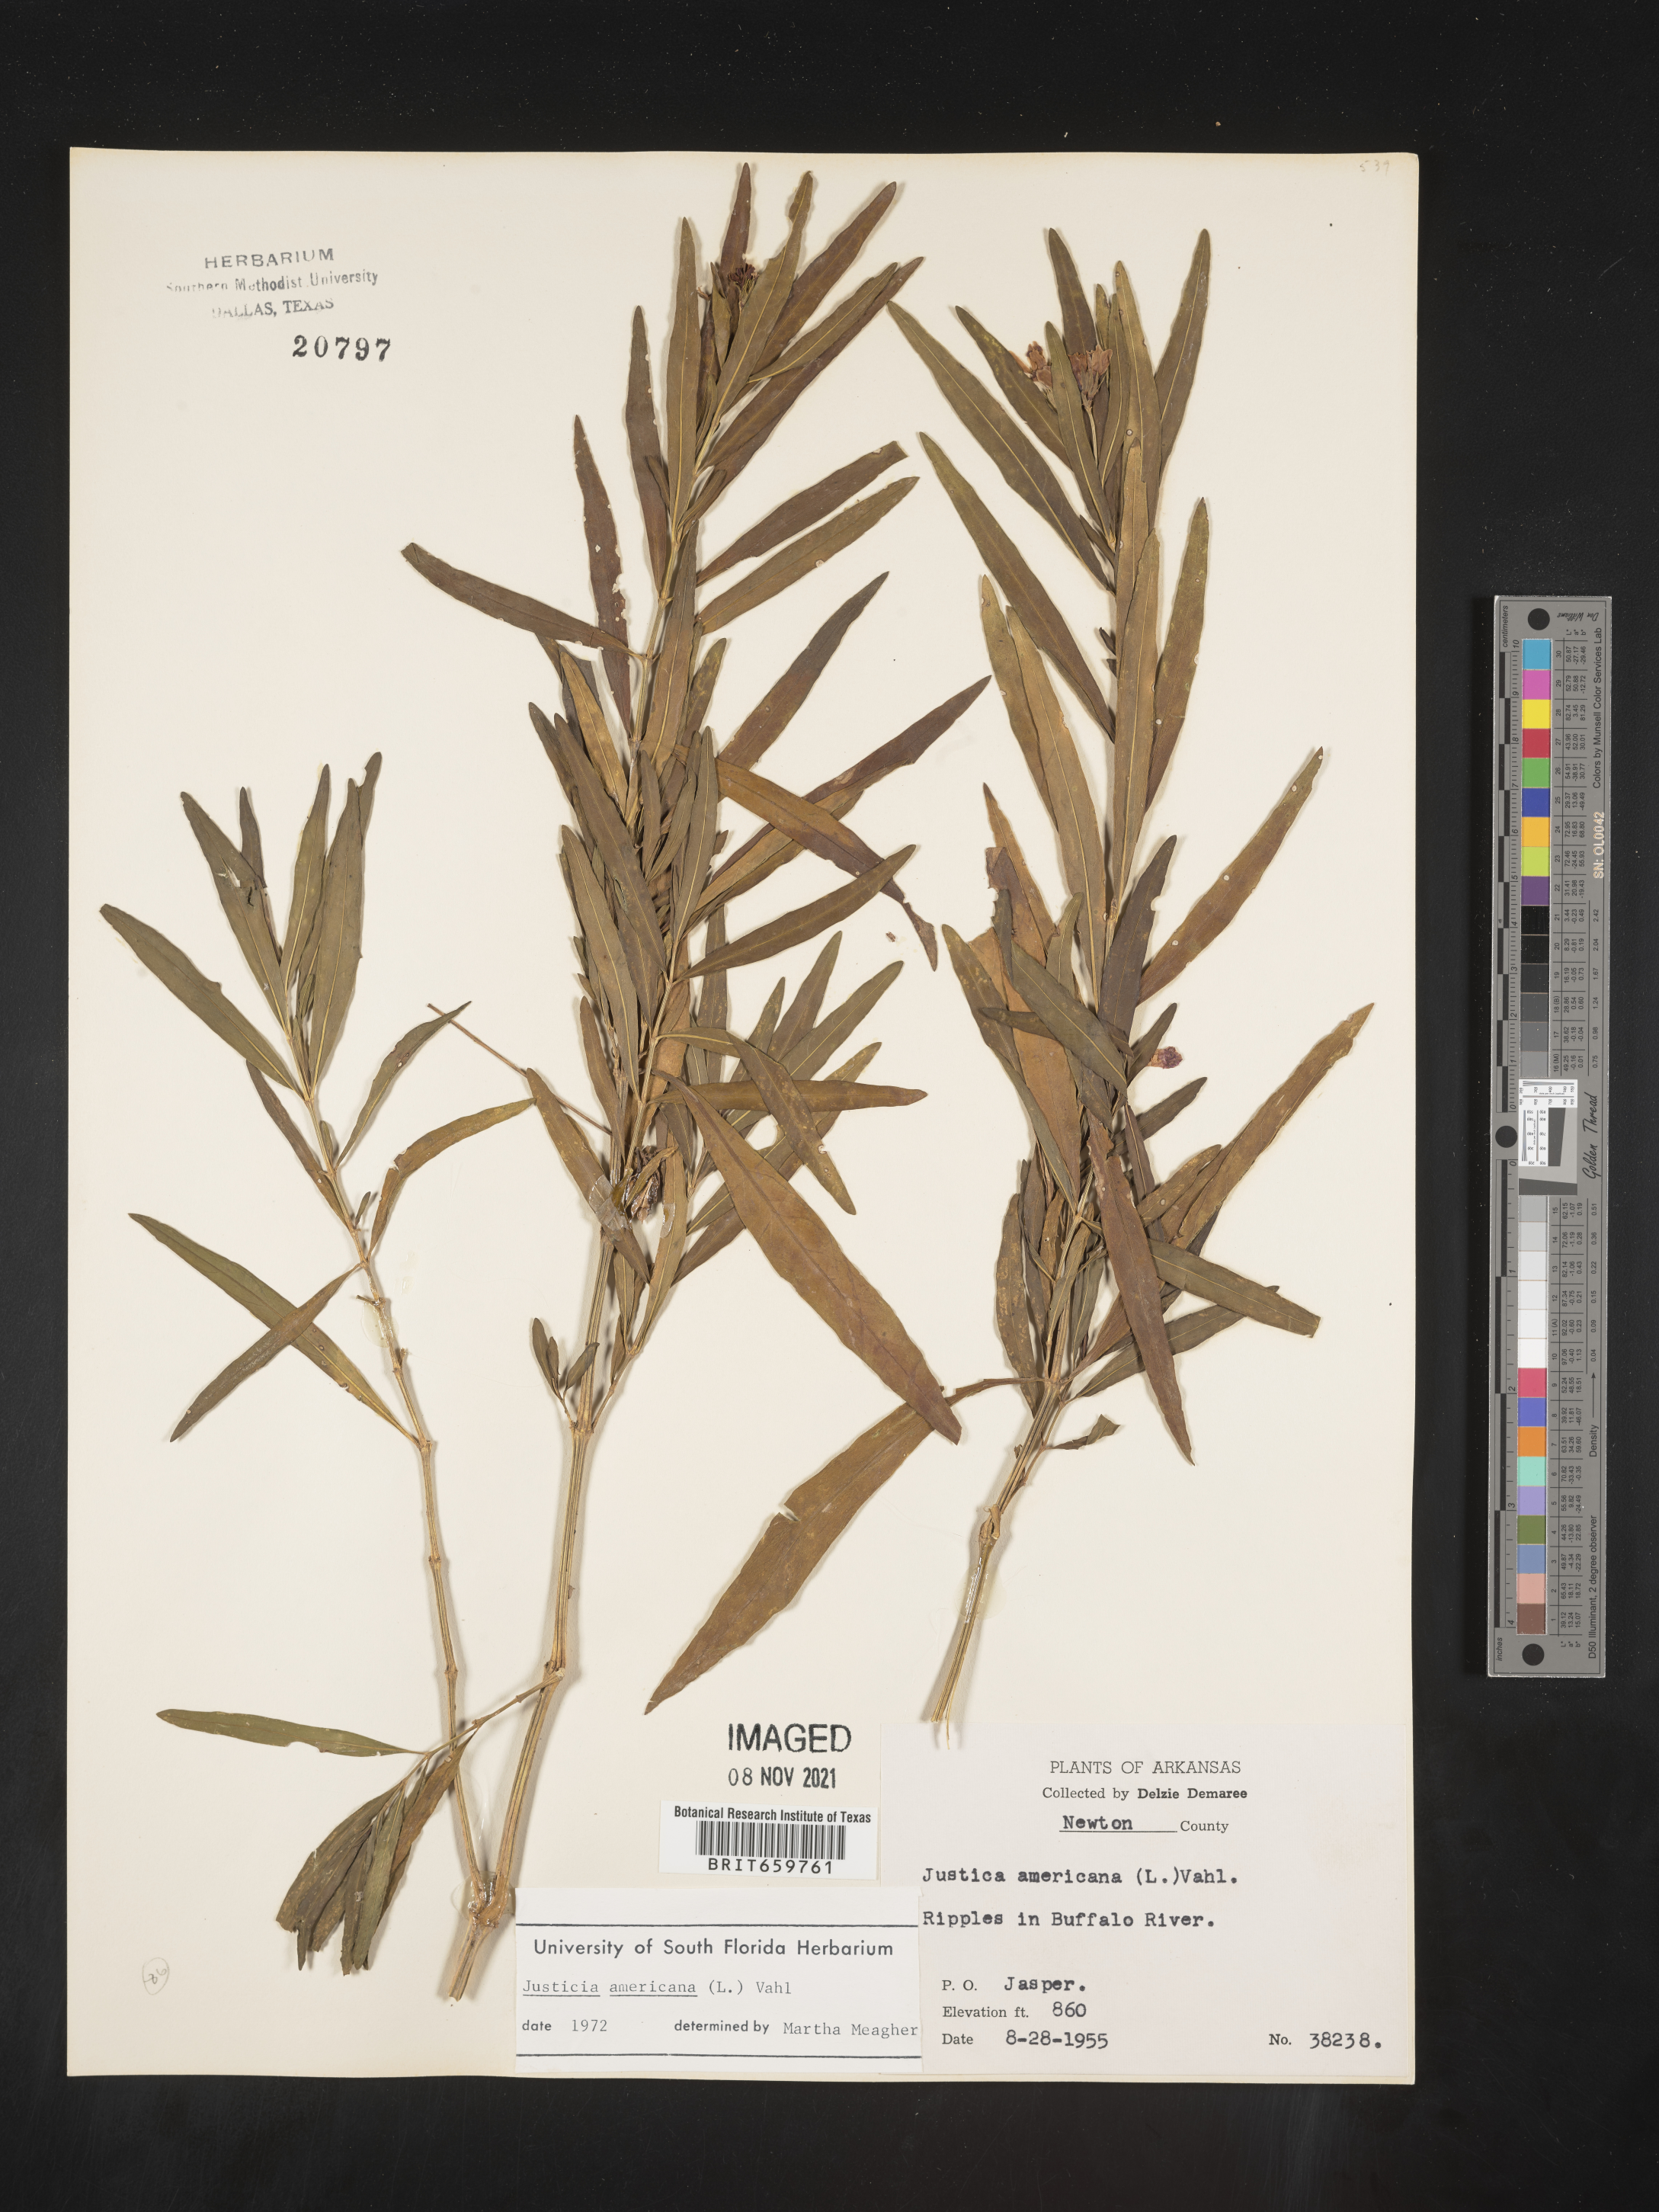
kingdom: Plantae
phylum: Tracheophyta
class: Magnoliopsida
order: Lamiales
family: Acanthaceae
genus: Dianthera
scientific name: Dianthera americana
